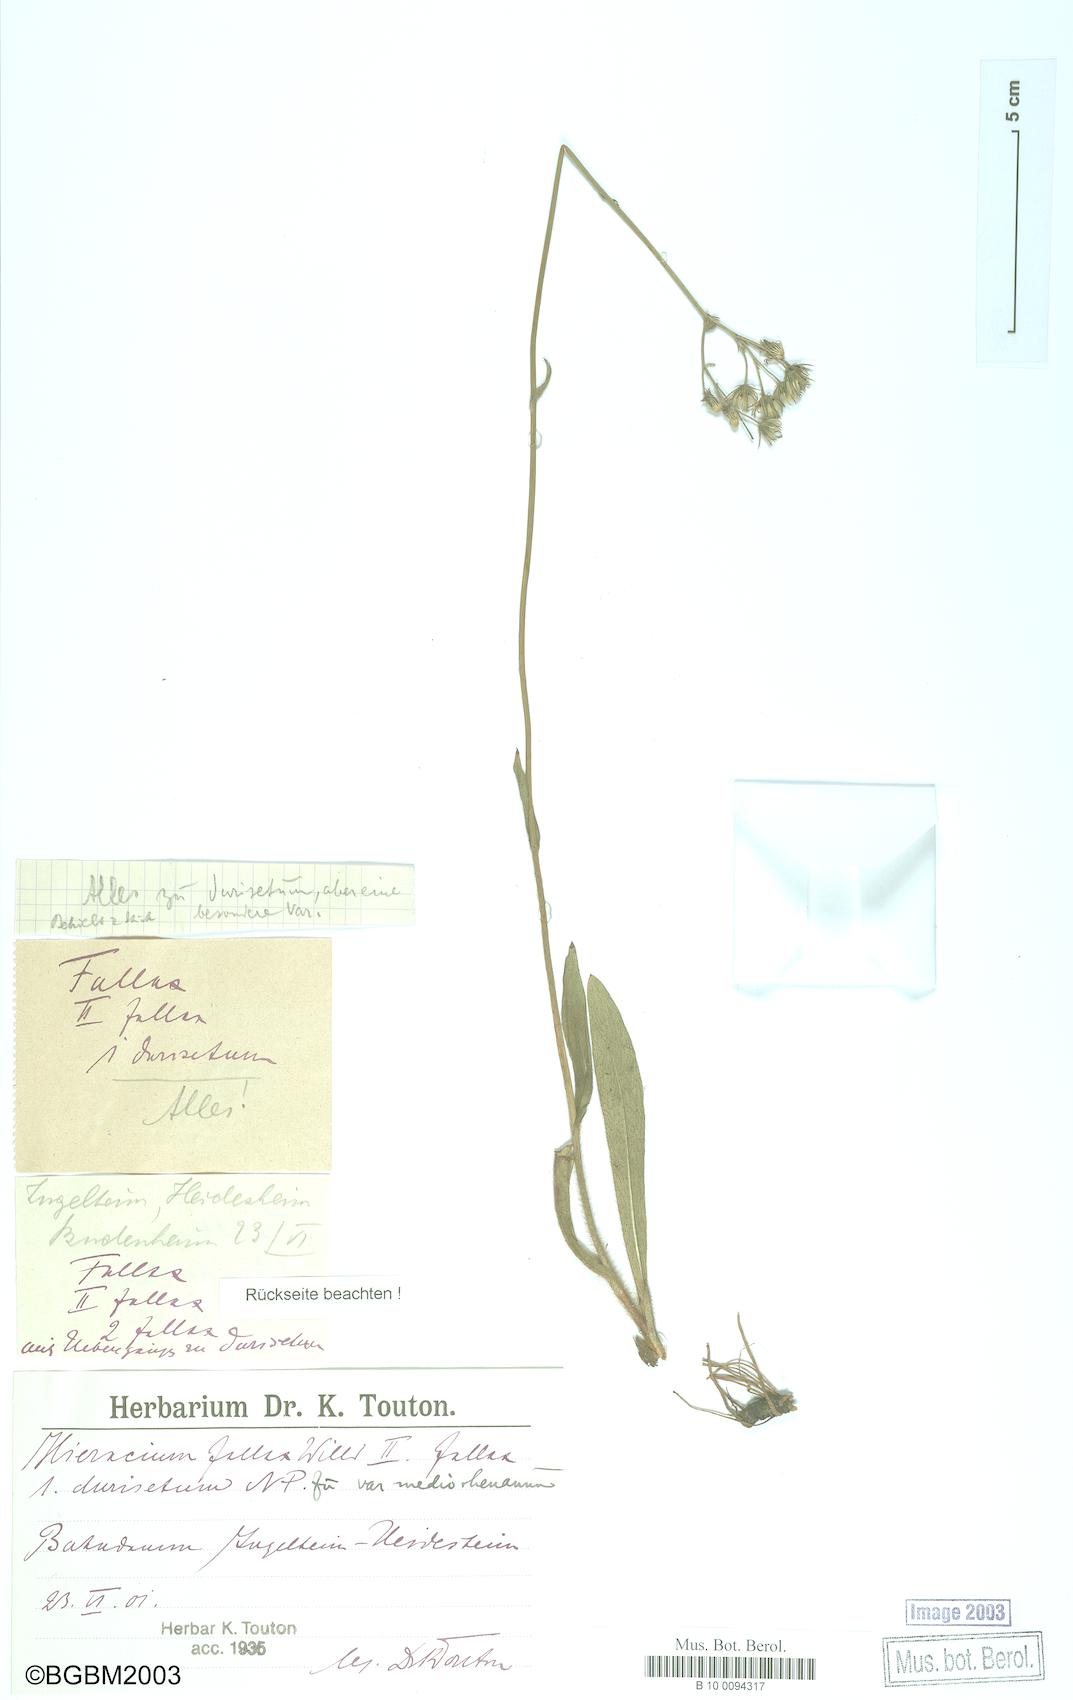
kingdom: Plantae
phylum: Tracheophyta
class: Magnoliopsida
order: Asterales
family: Asteraceae
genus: Hieracium
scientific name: Hieracium fallax
